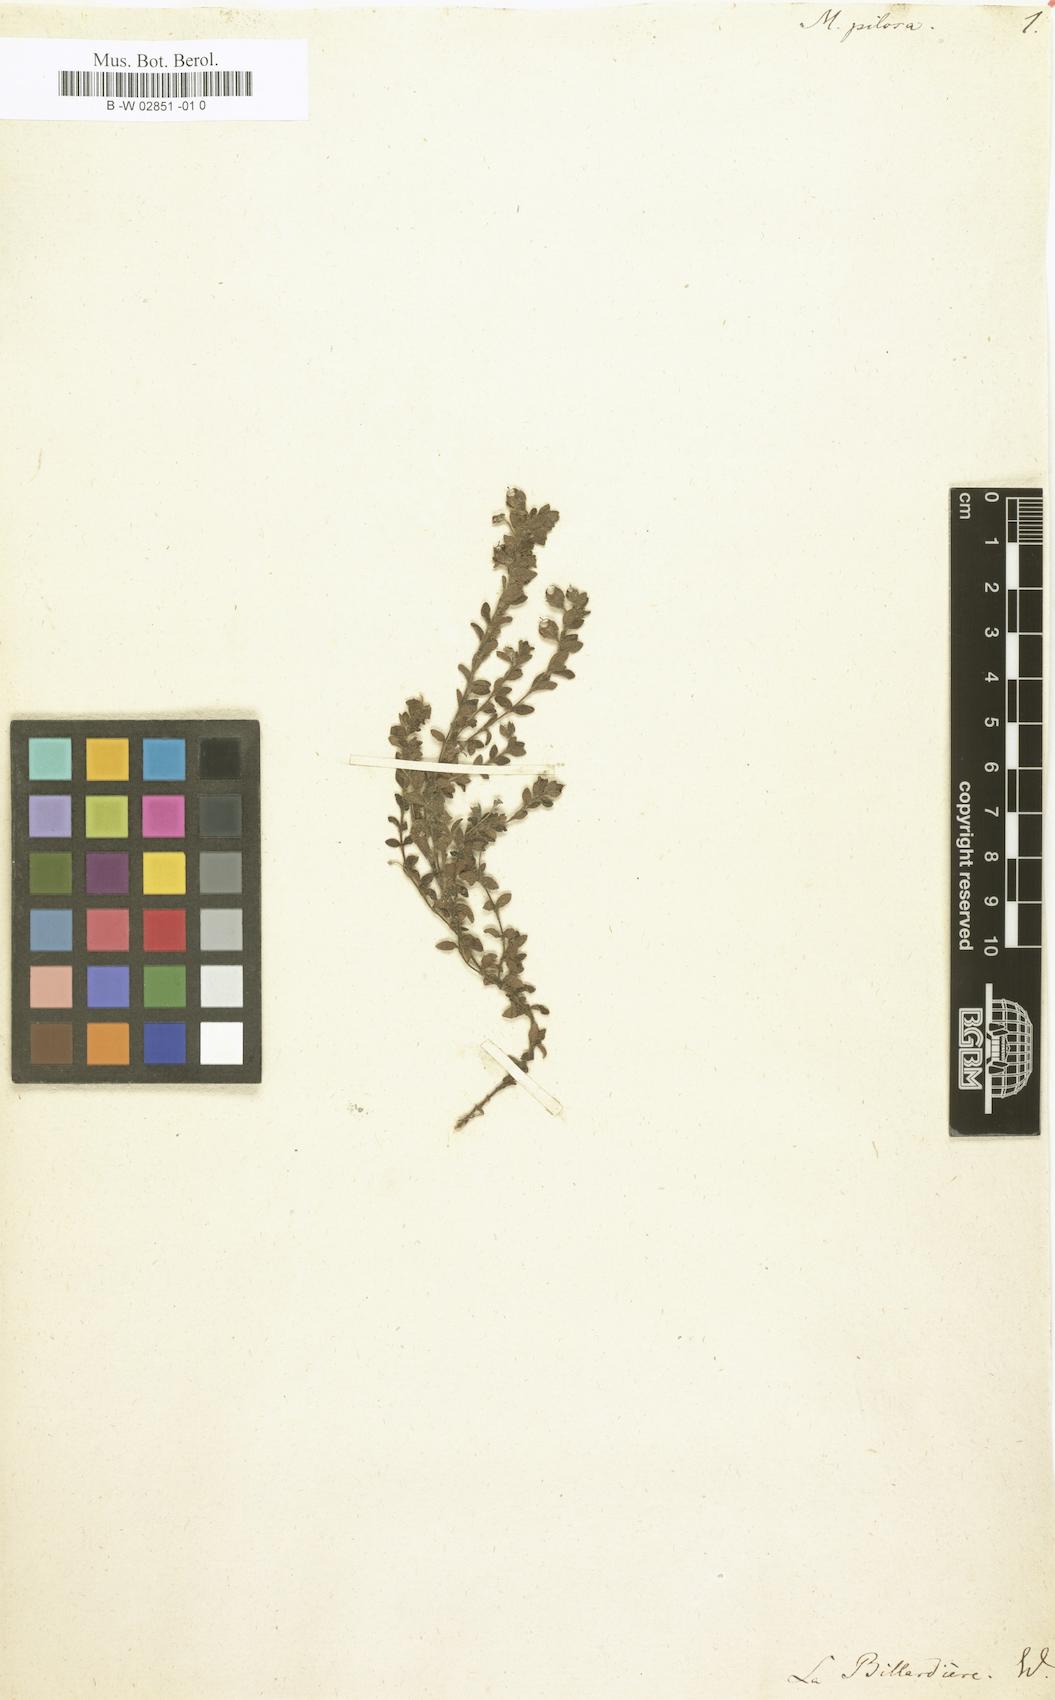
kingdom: Plantae
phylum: Tracheophyta
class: Magnoliopsida
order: Gentianales
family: Loganiaceae
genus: Mitrasacme
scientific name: Mitrasacme pilosa
